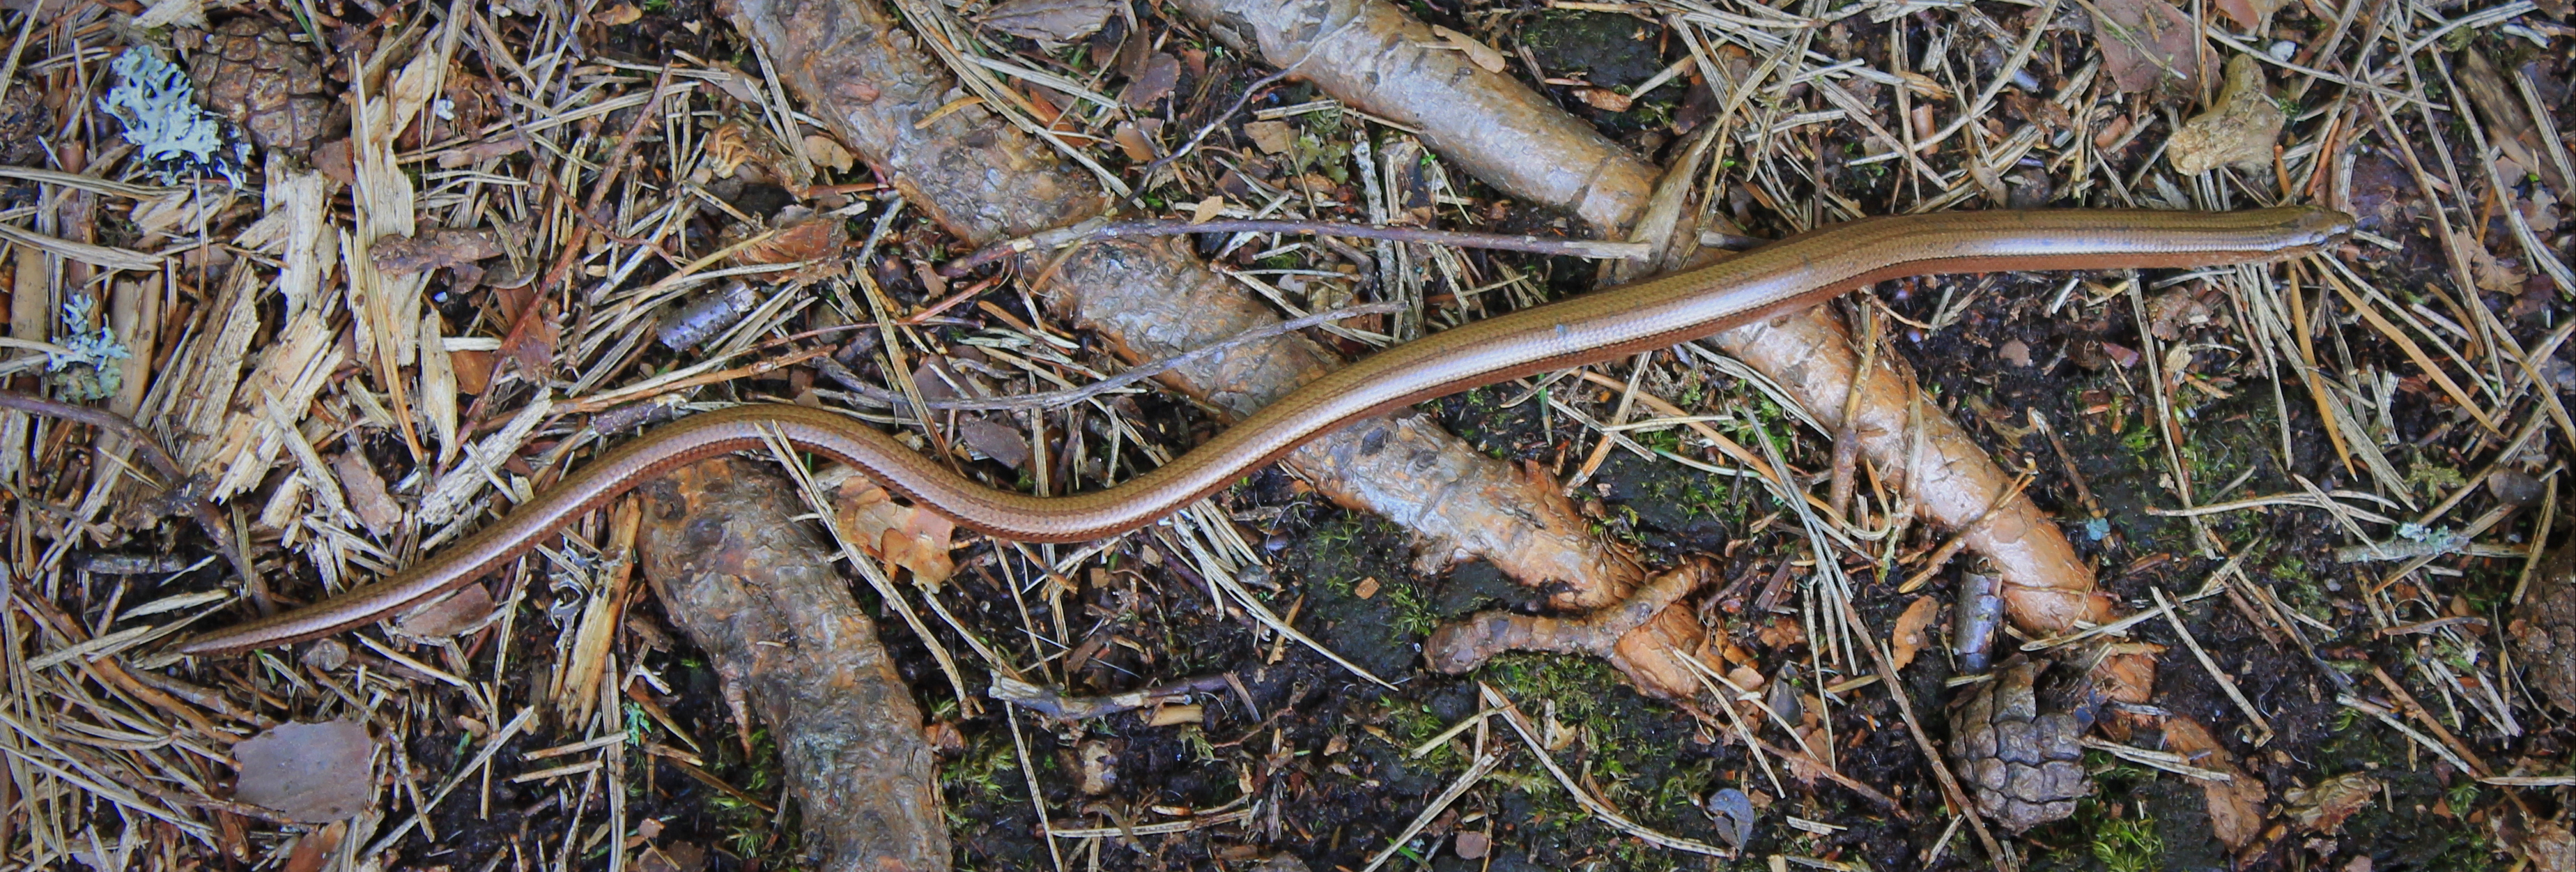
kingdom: Animalia
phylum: Chordata
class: Squamata
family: Anguidae
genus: Anguis
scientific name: Anguis colchica
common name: Slow worm
